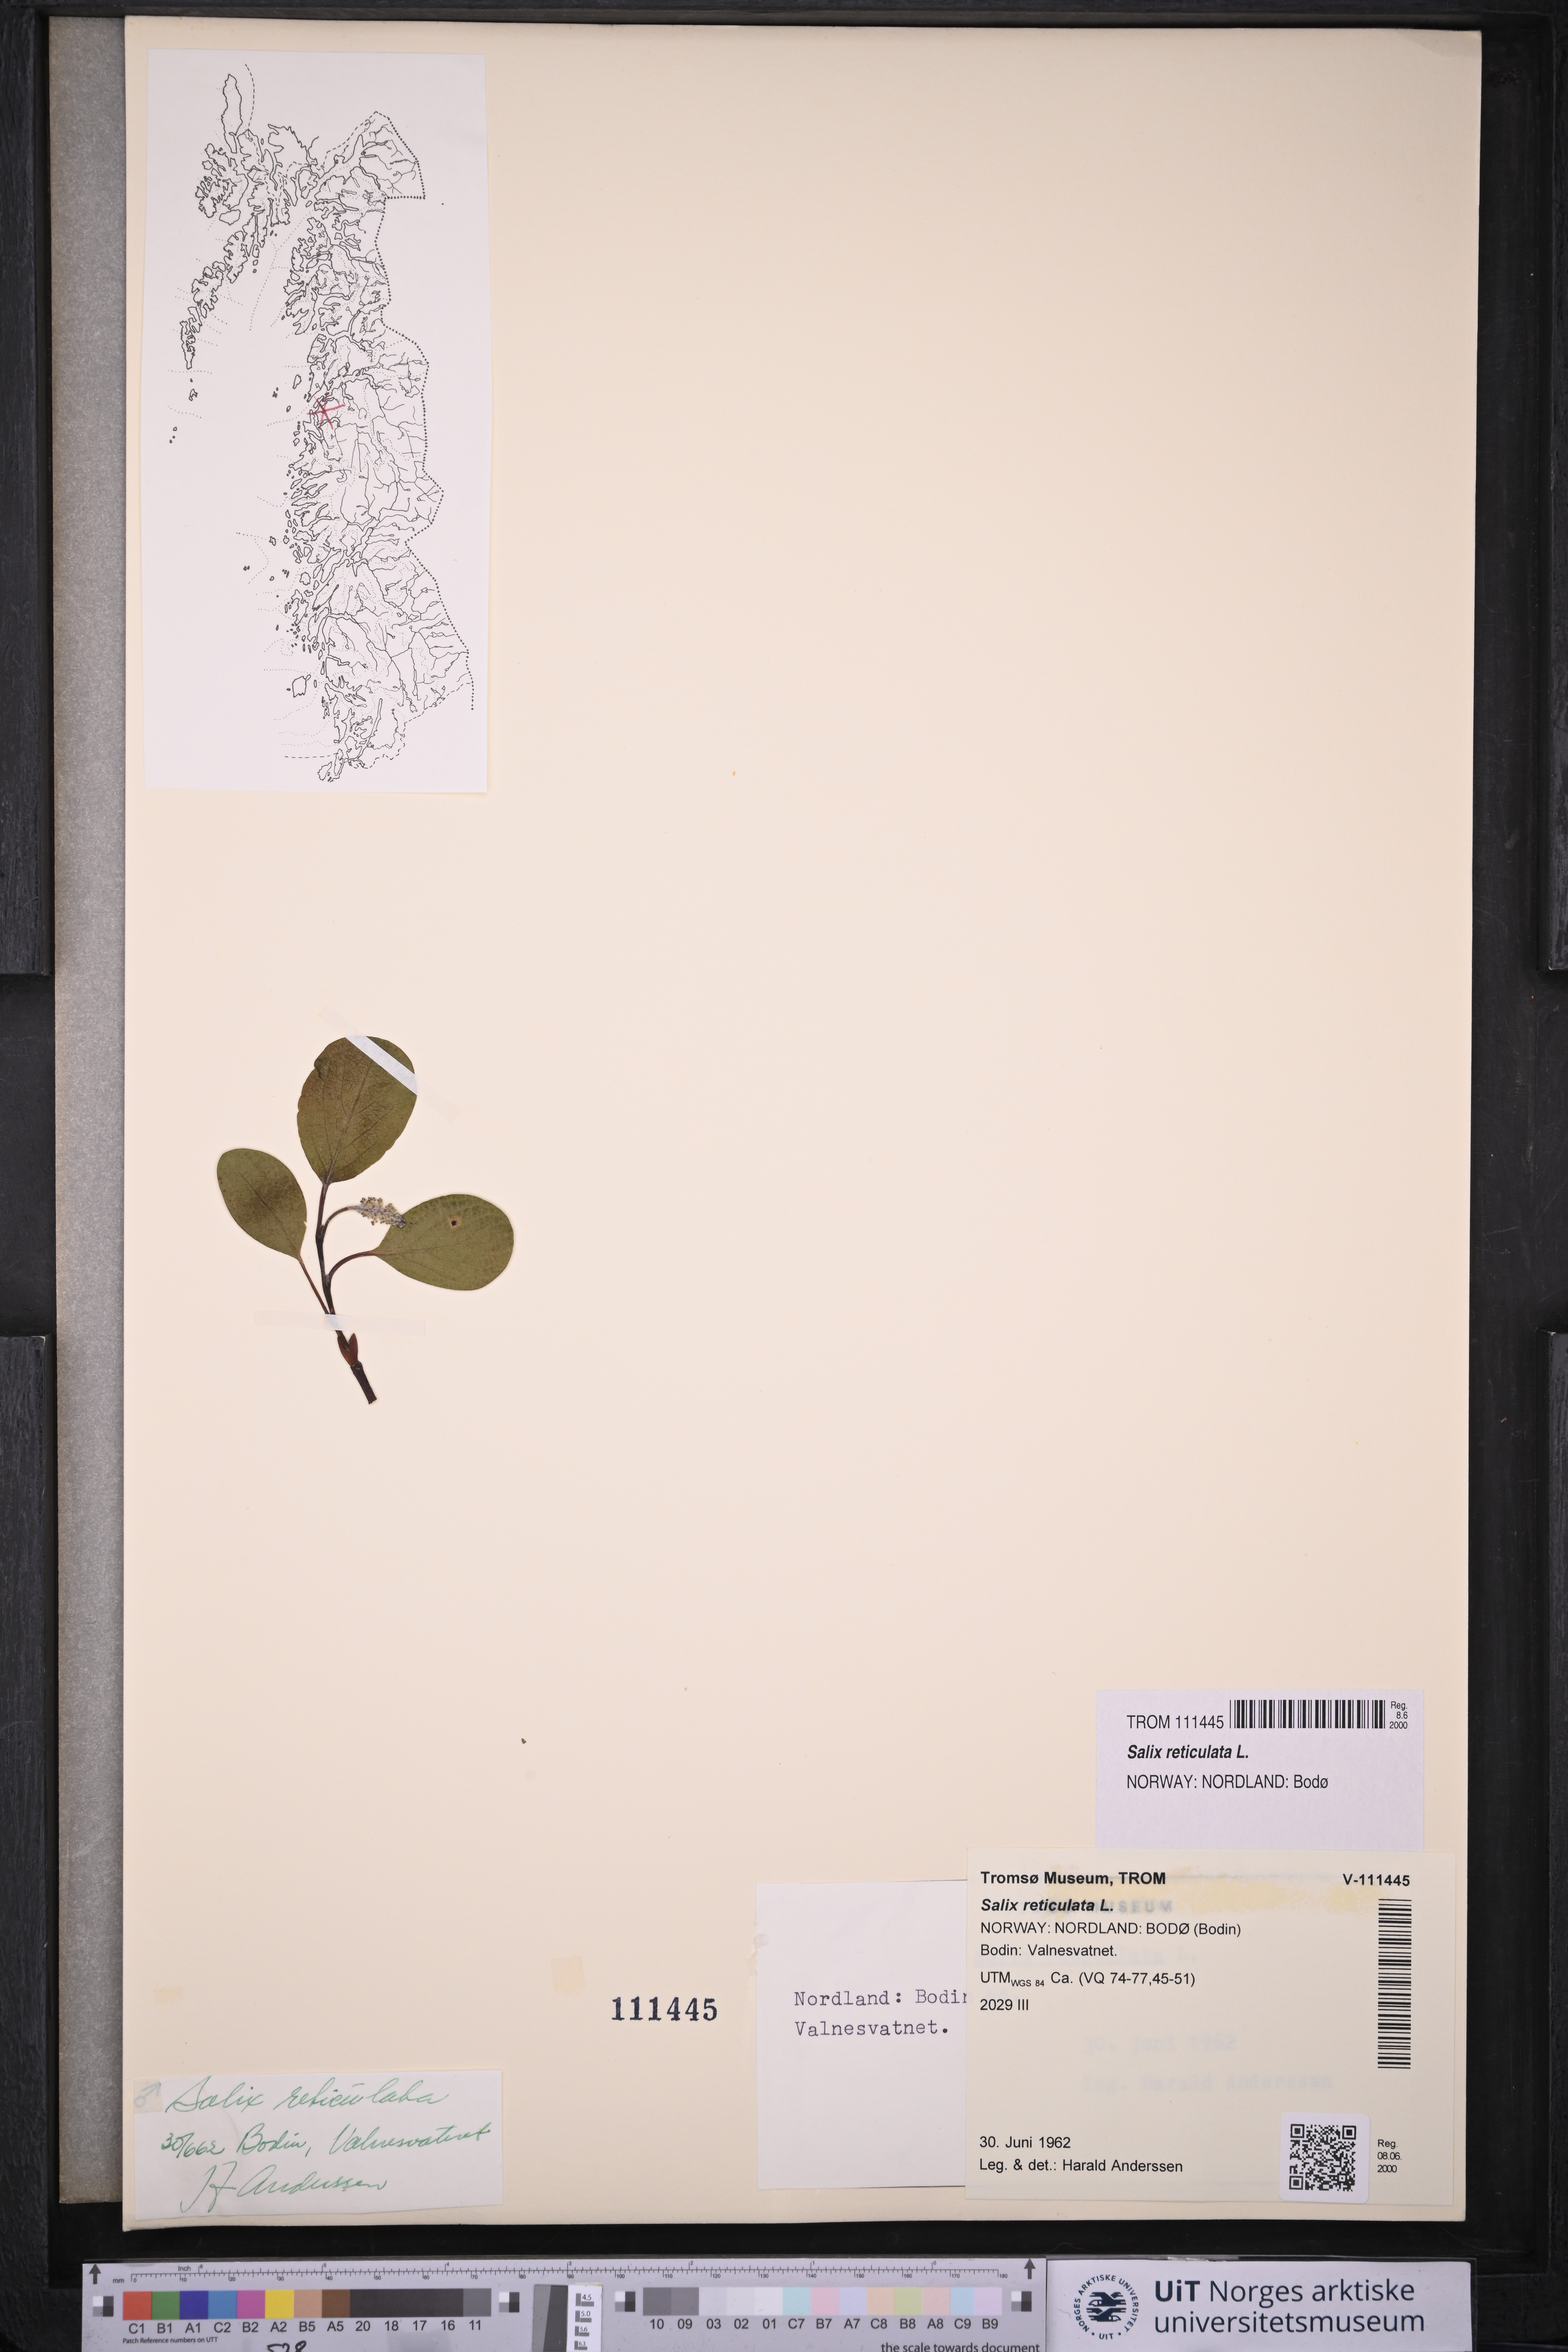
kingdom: Plantae
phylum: Tracheophyta
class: Magnoliopsida
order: Malpighiales
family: Salicaceae
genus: Salix
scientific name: Salix reticulata
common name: Net-leaved willow
